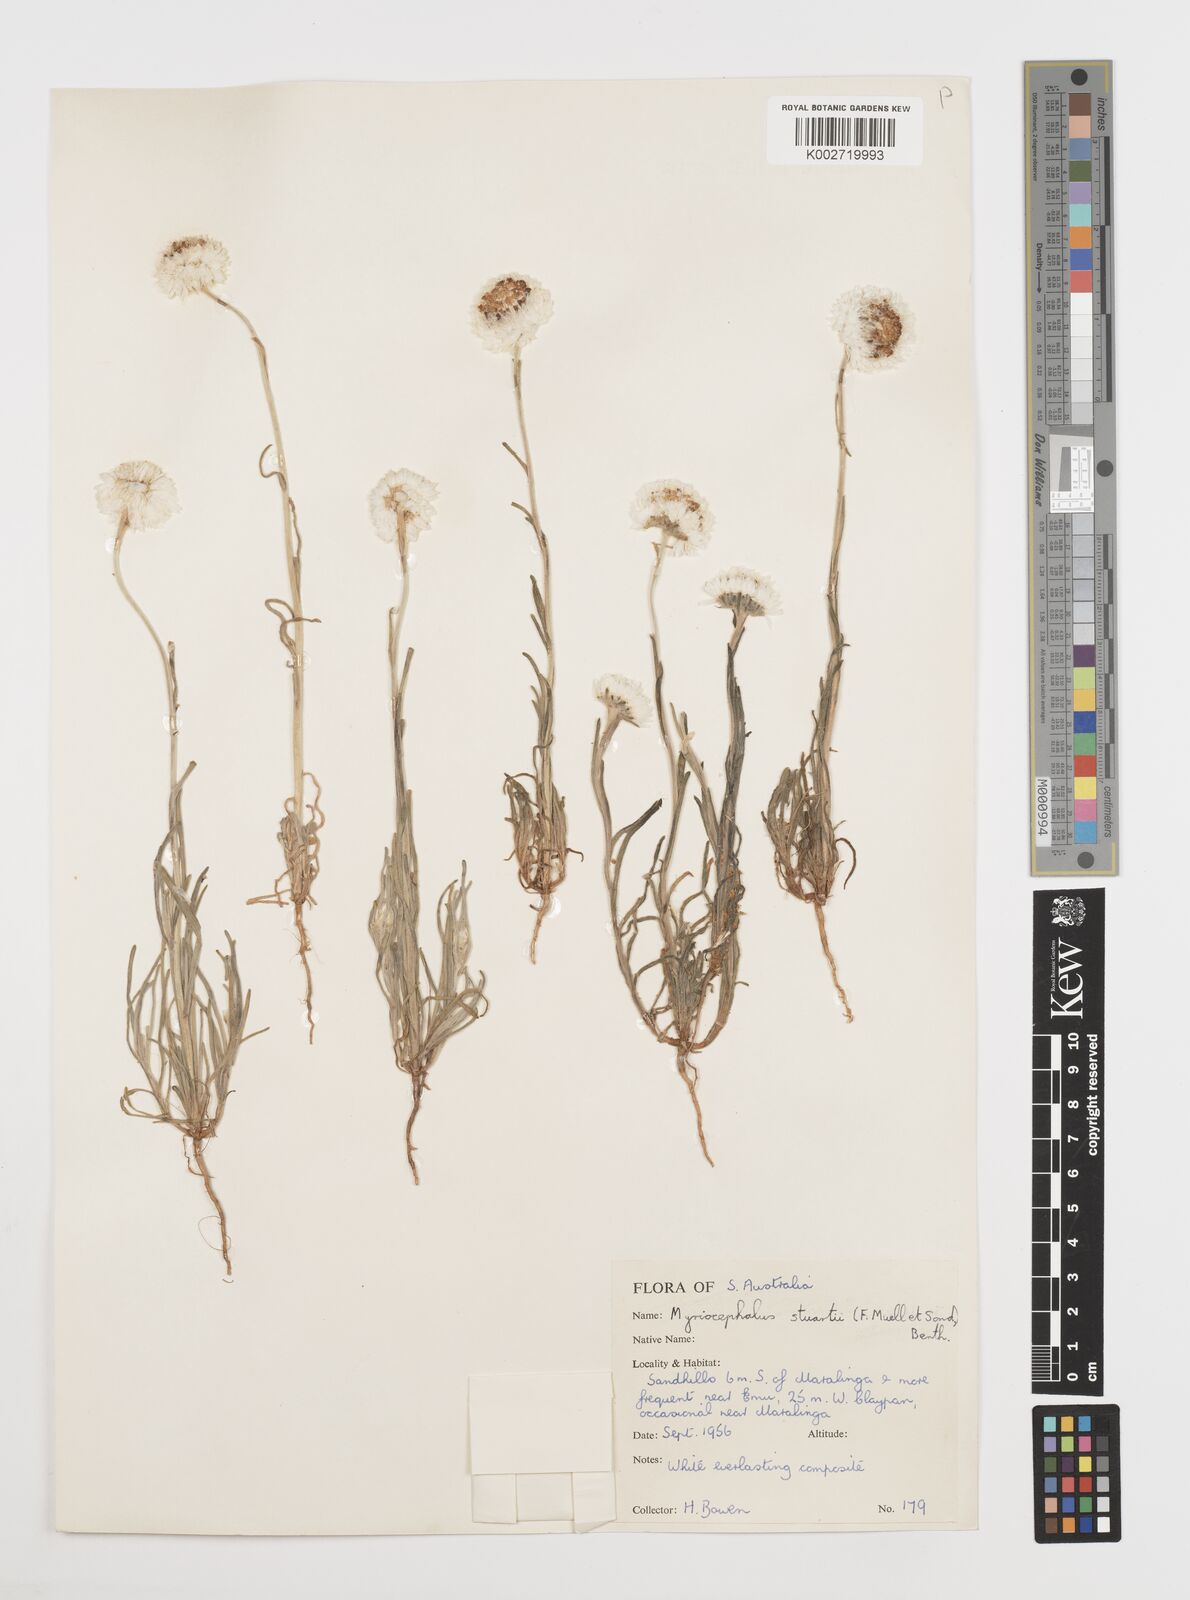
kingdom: Plantae
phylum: Tracheophyta
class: Magnoliopsida
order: Asterales
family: Asteraceae
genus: Polycalymma
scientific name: Polycalymma stuartii
